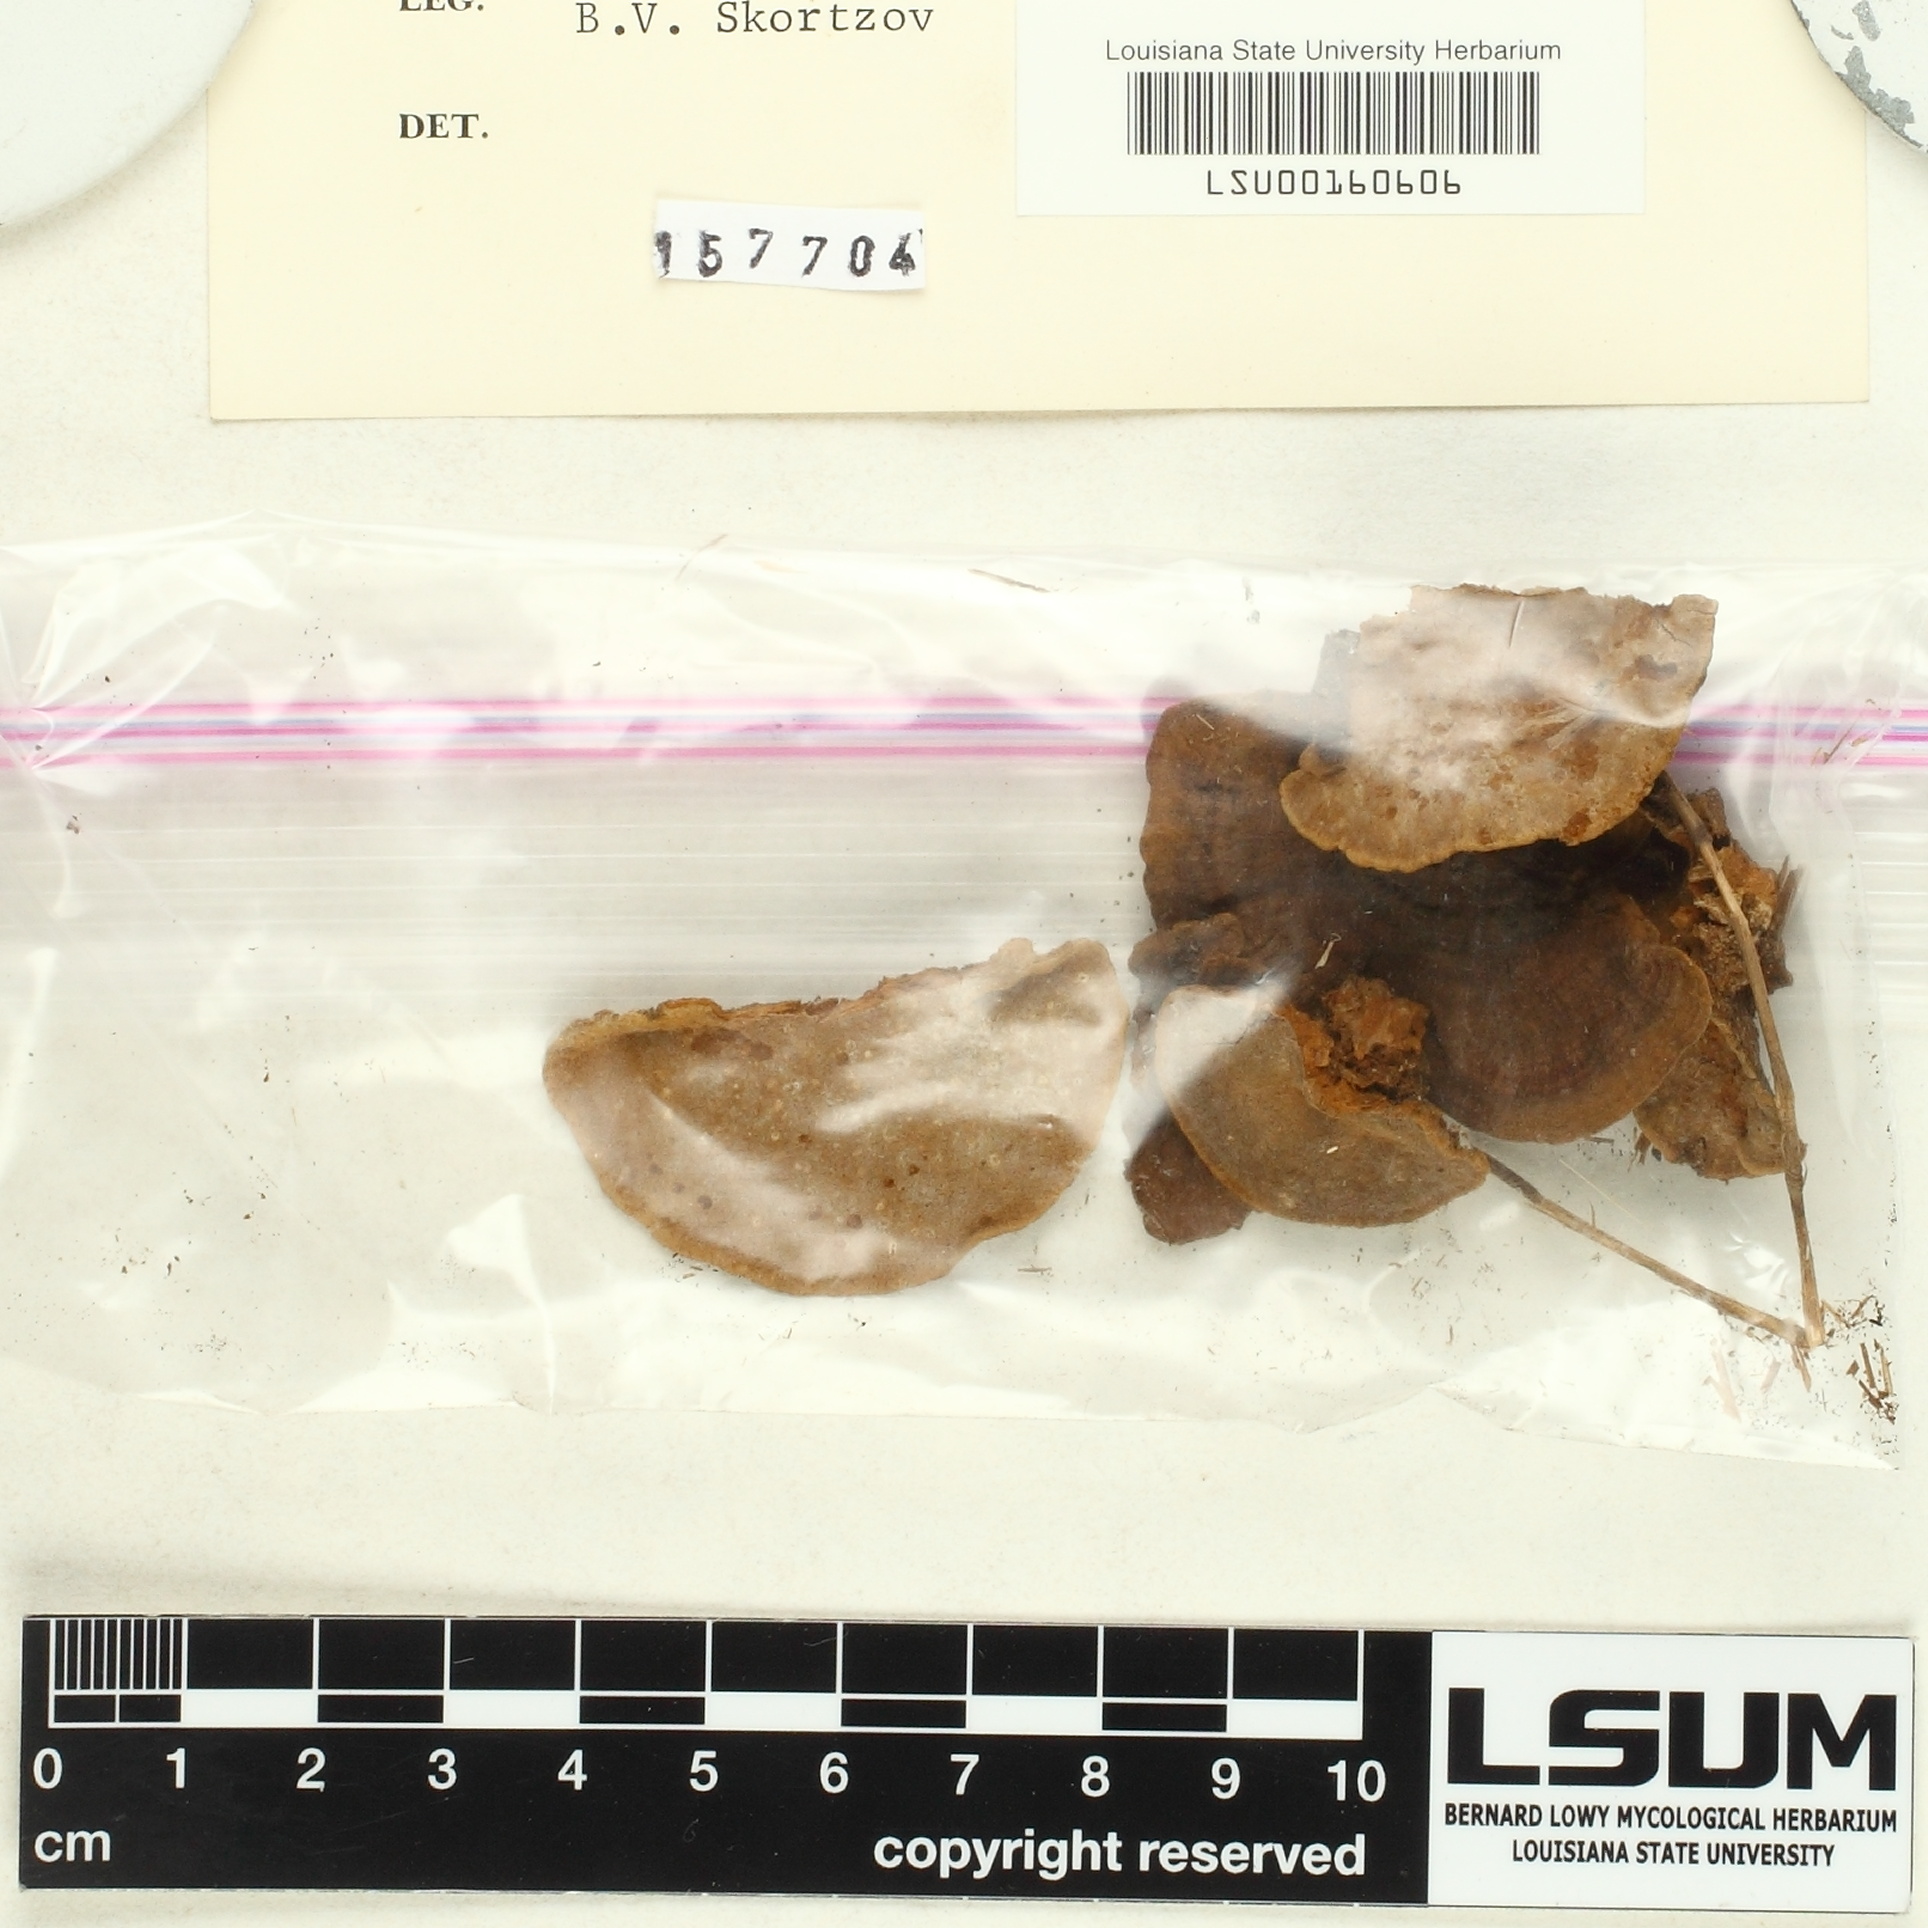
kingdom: Fungi
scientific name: Fungi
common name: Fungi
